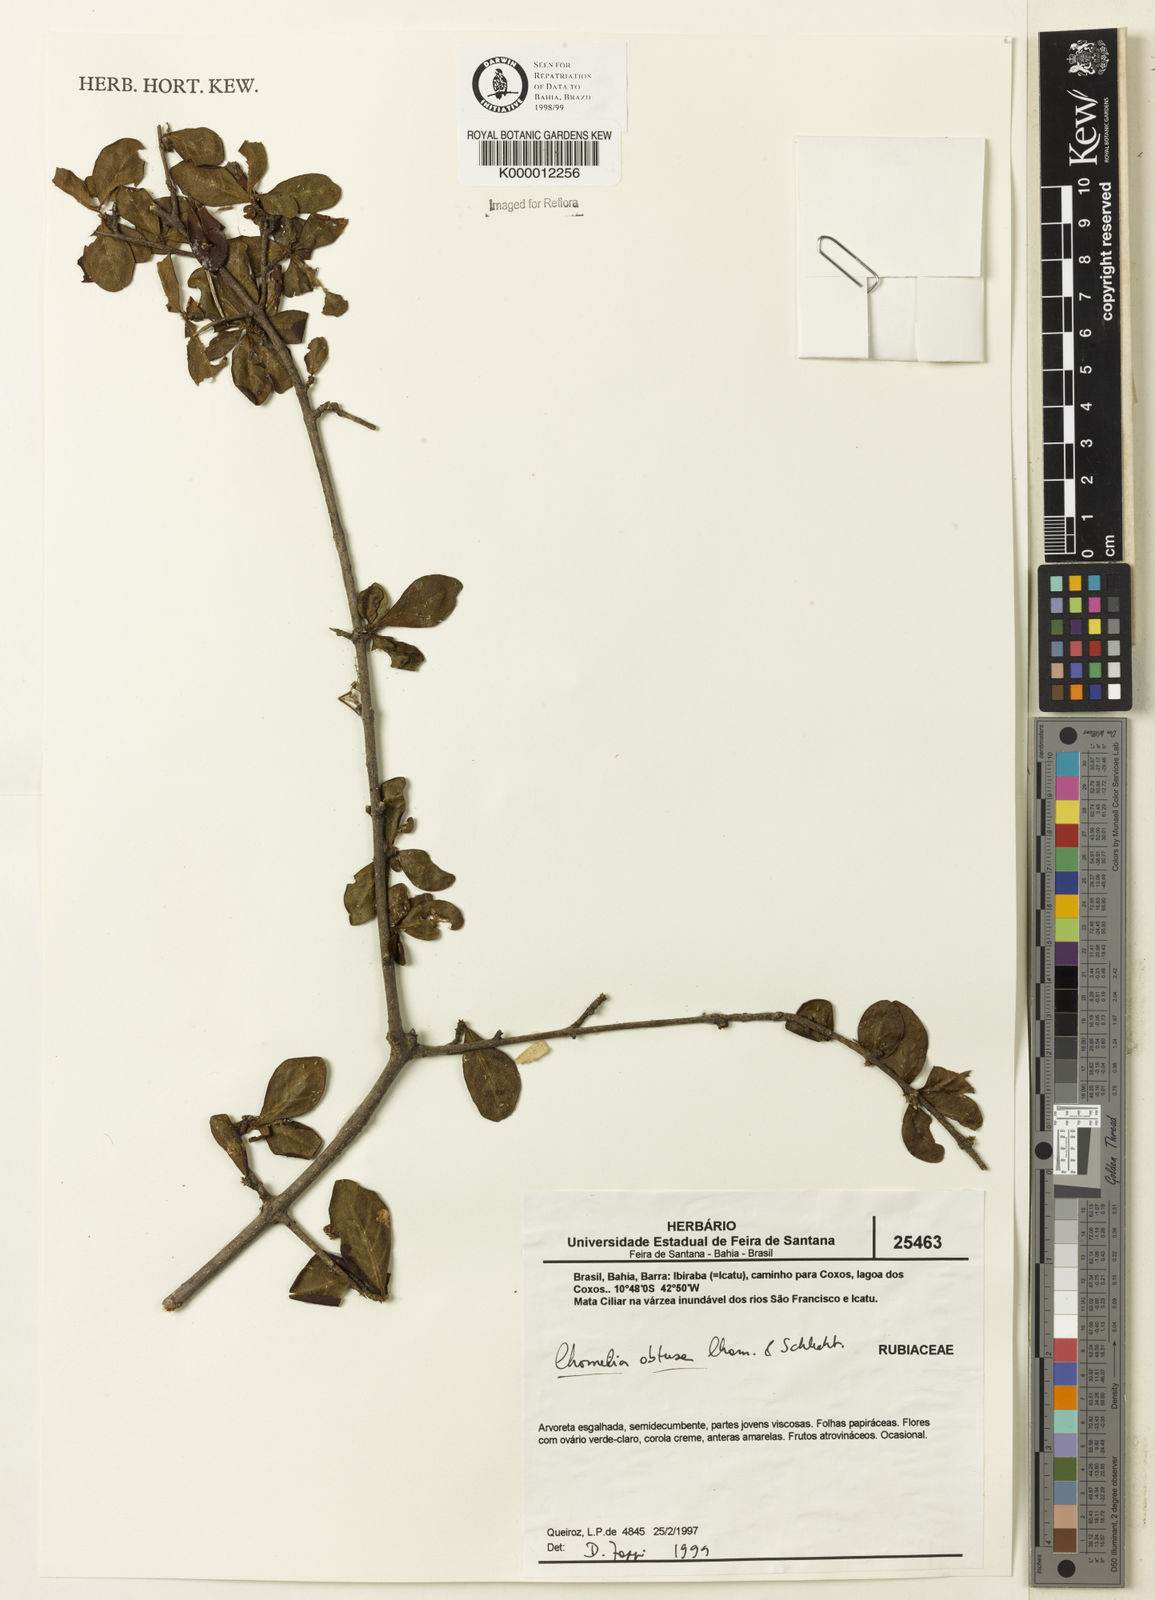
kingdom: Plantae
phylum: Tracheophyta
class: Magnoliopsida
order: Gentianales
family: Rubiaceae
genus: Chomelia
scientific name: Chomelia obtusa
